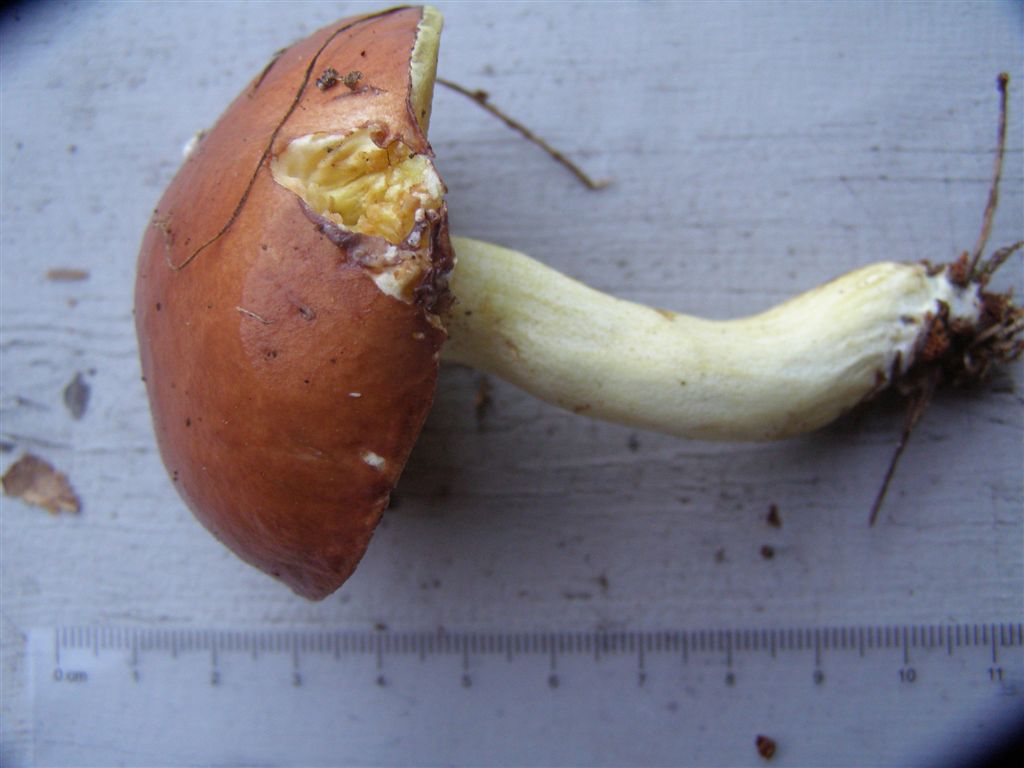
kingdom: Fungi
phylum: Basidiomycota
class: Agaricomycetes
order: Boletales
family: Suillaceae
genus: Suillus
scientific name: Suillus granulatus
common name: kornet slimrørhat
